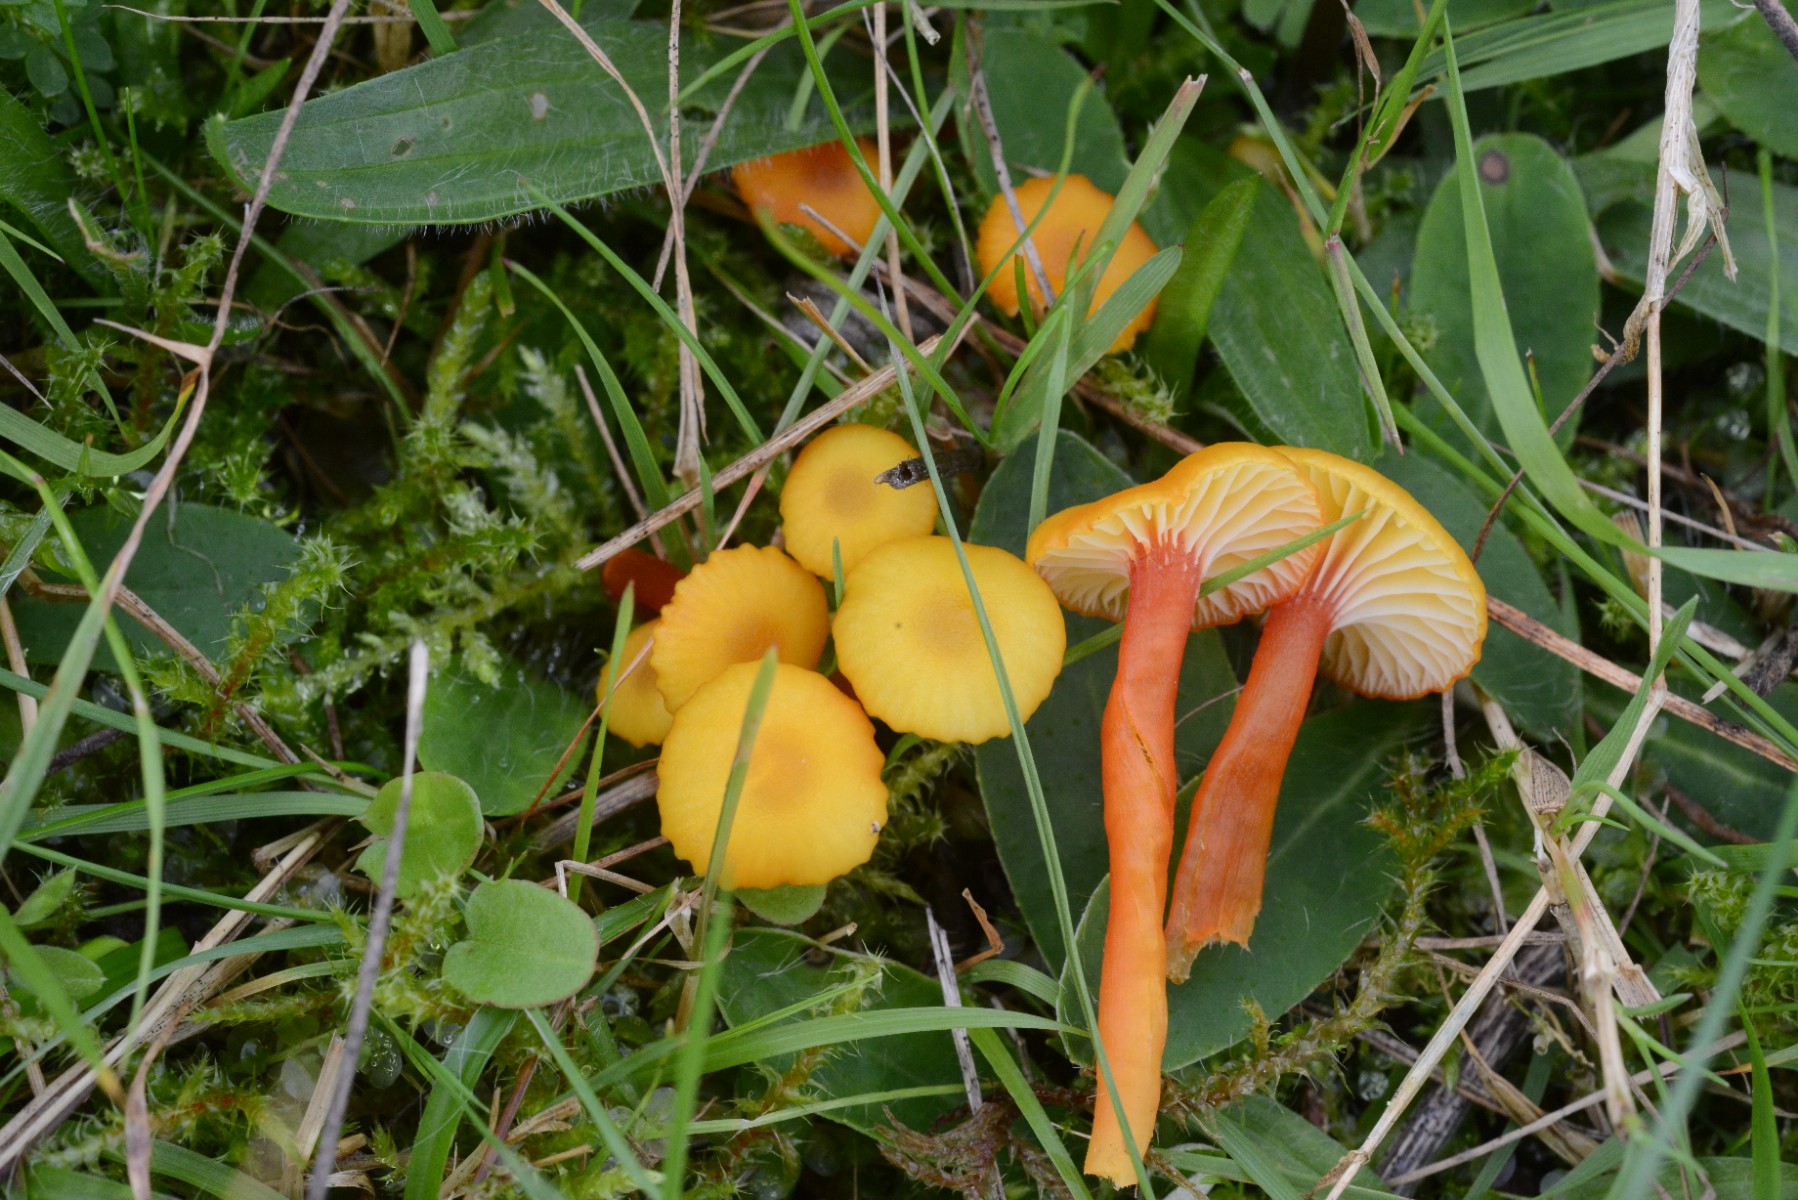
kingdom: Fungi
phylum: Basidiomycota
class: Agaricomycetes
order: Agaricales
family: Hygrophoraceae
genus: Hygrocybe
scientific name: Hygrocybe insipida
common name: liden vokshat
